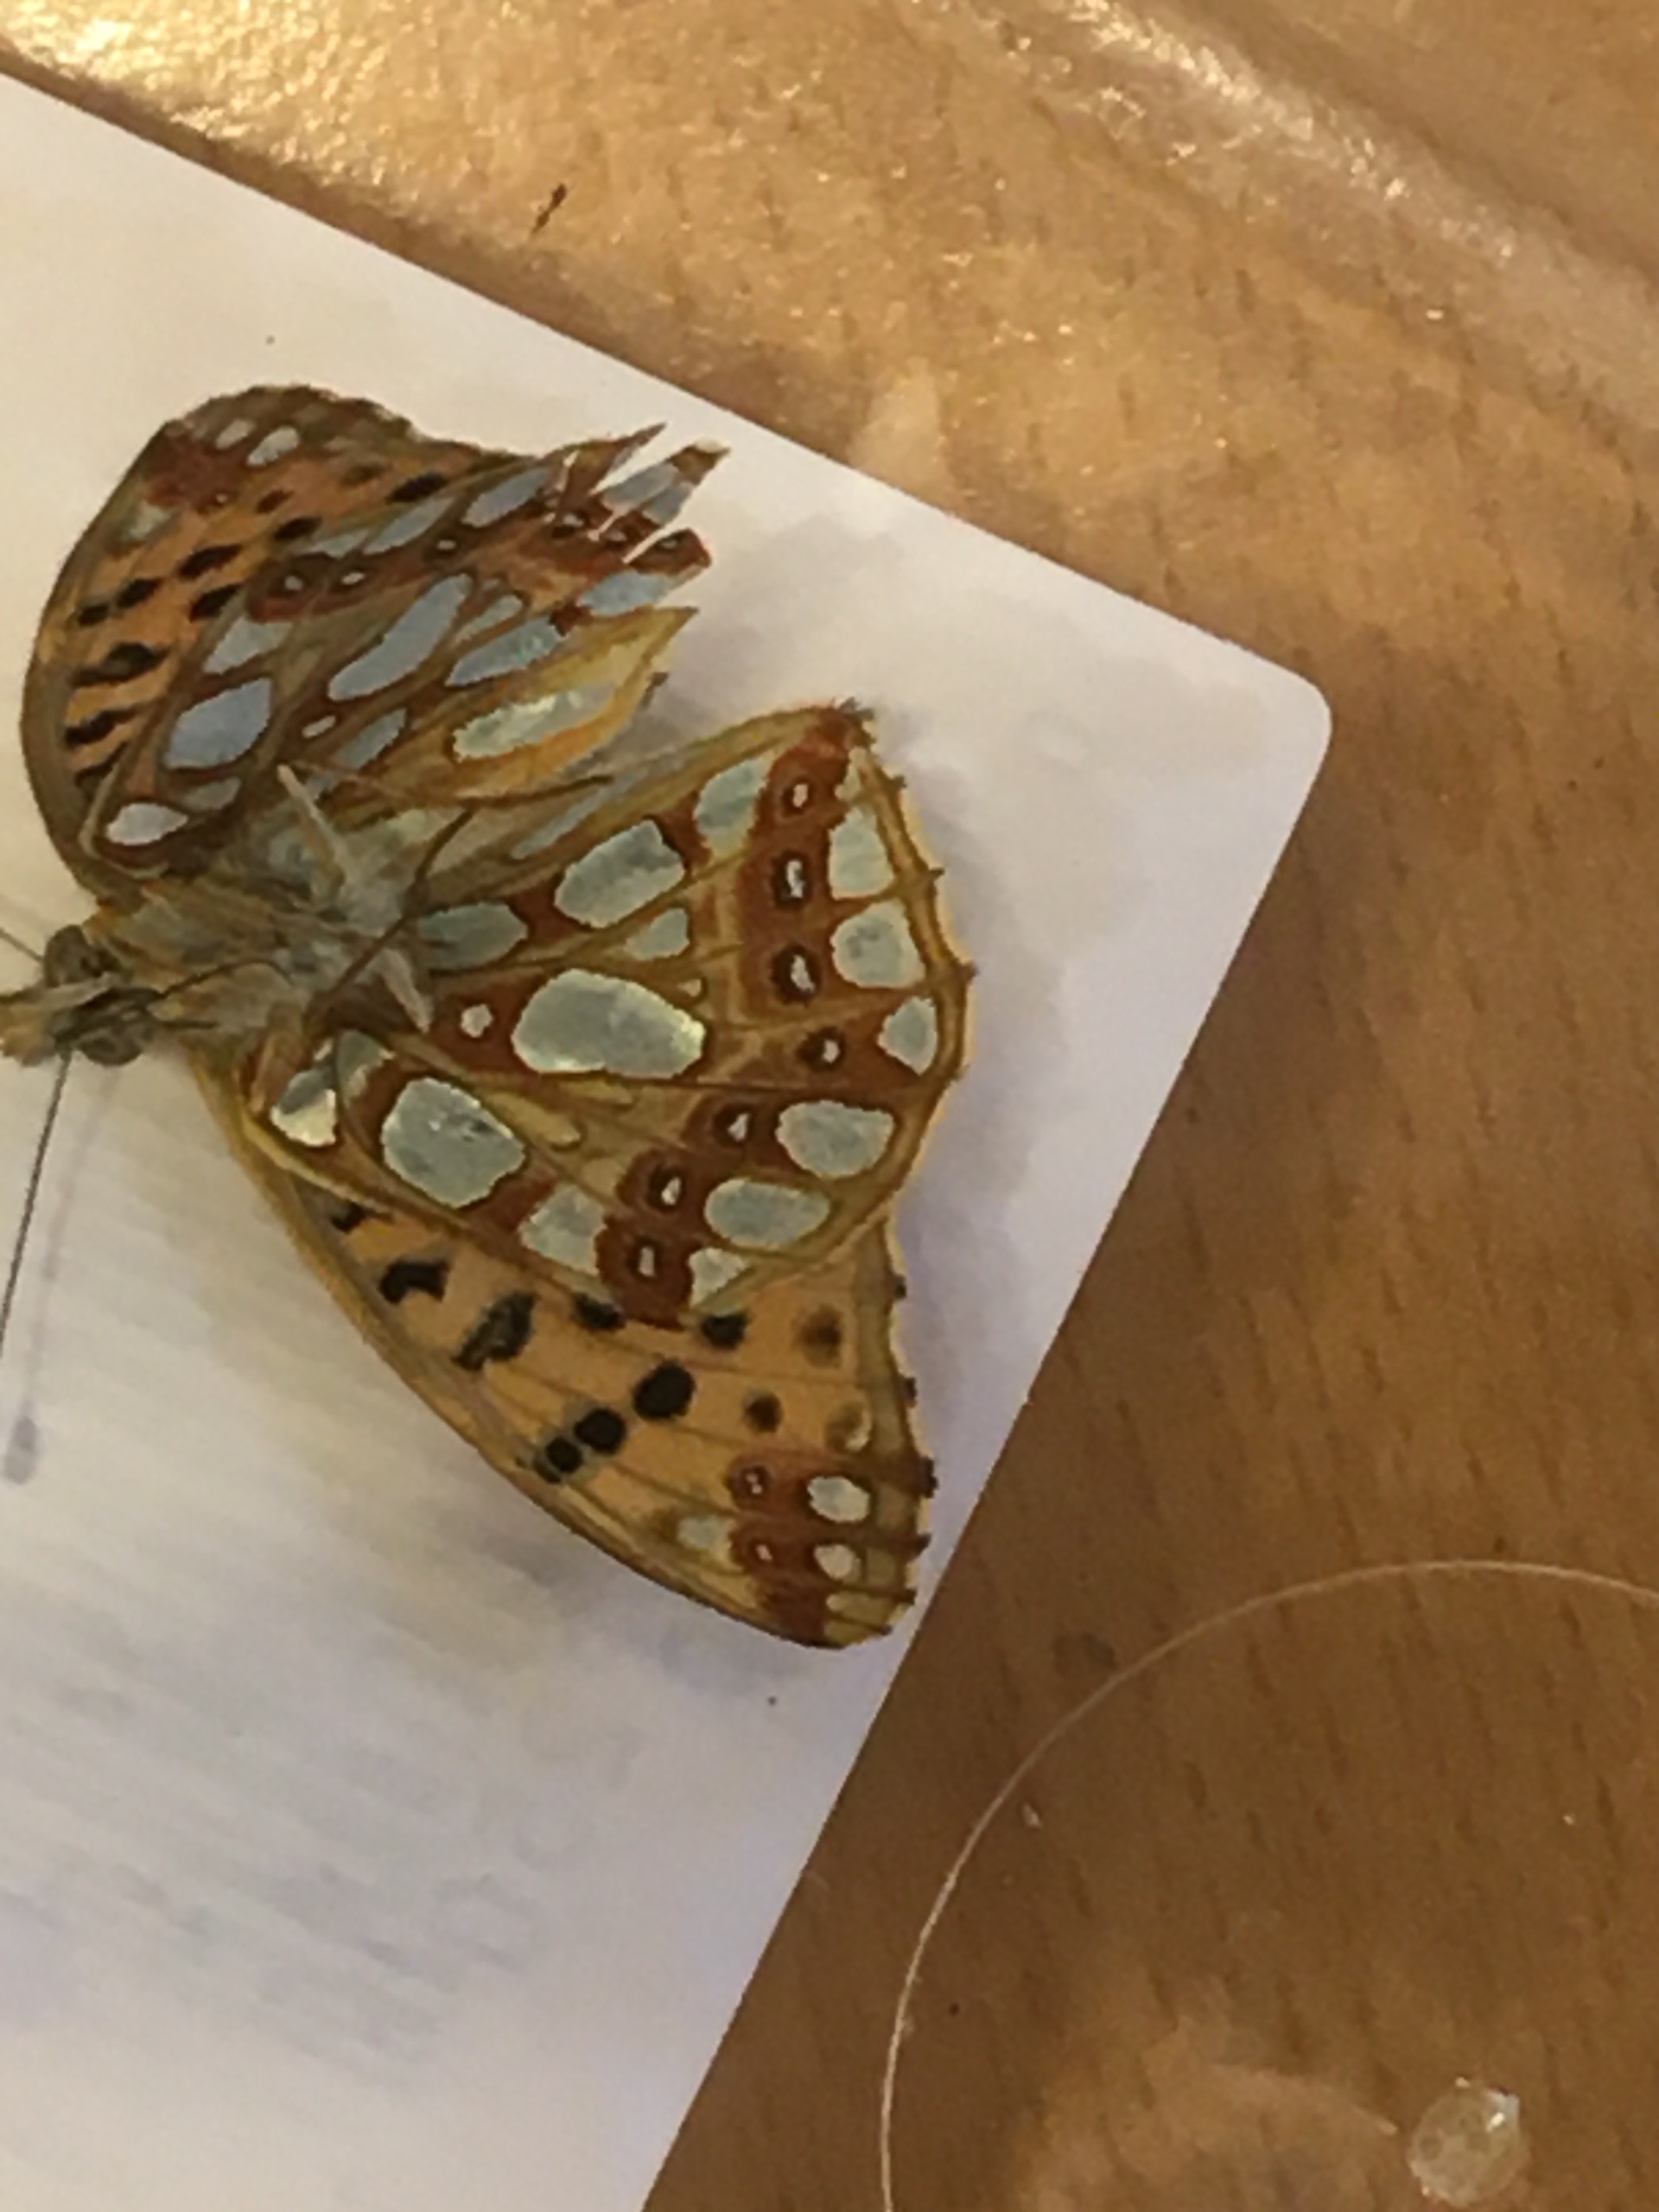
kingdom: Animalia
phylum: Arthropoda
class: Insecta
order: Lepidoptera
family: Nymphalidae
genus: Issoria
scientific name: Issoria lathonia
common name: Storplettet perlemorsommerfugl
